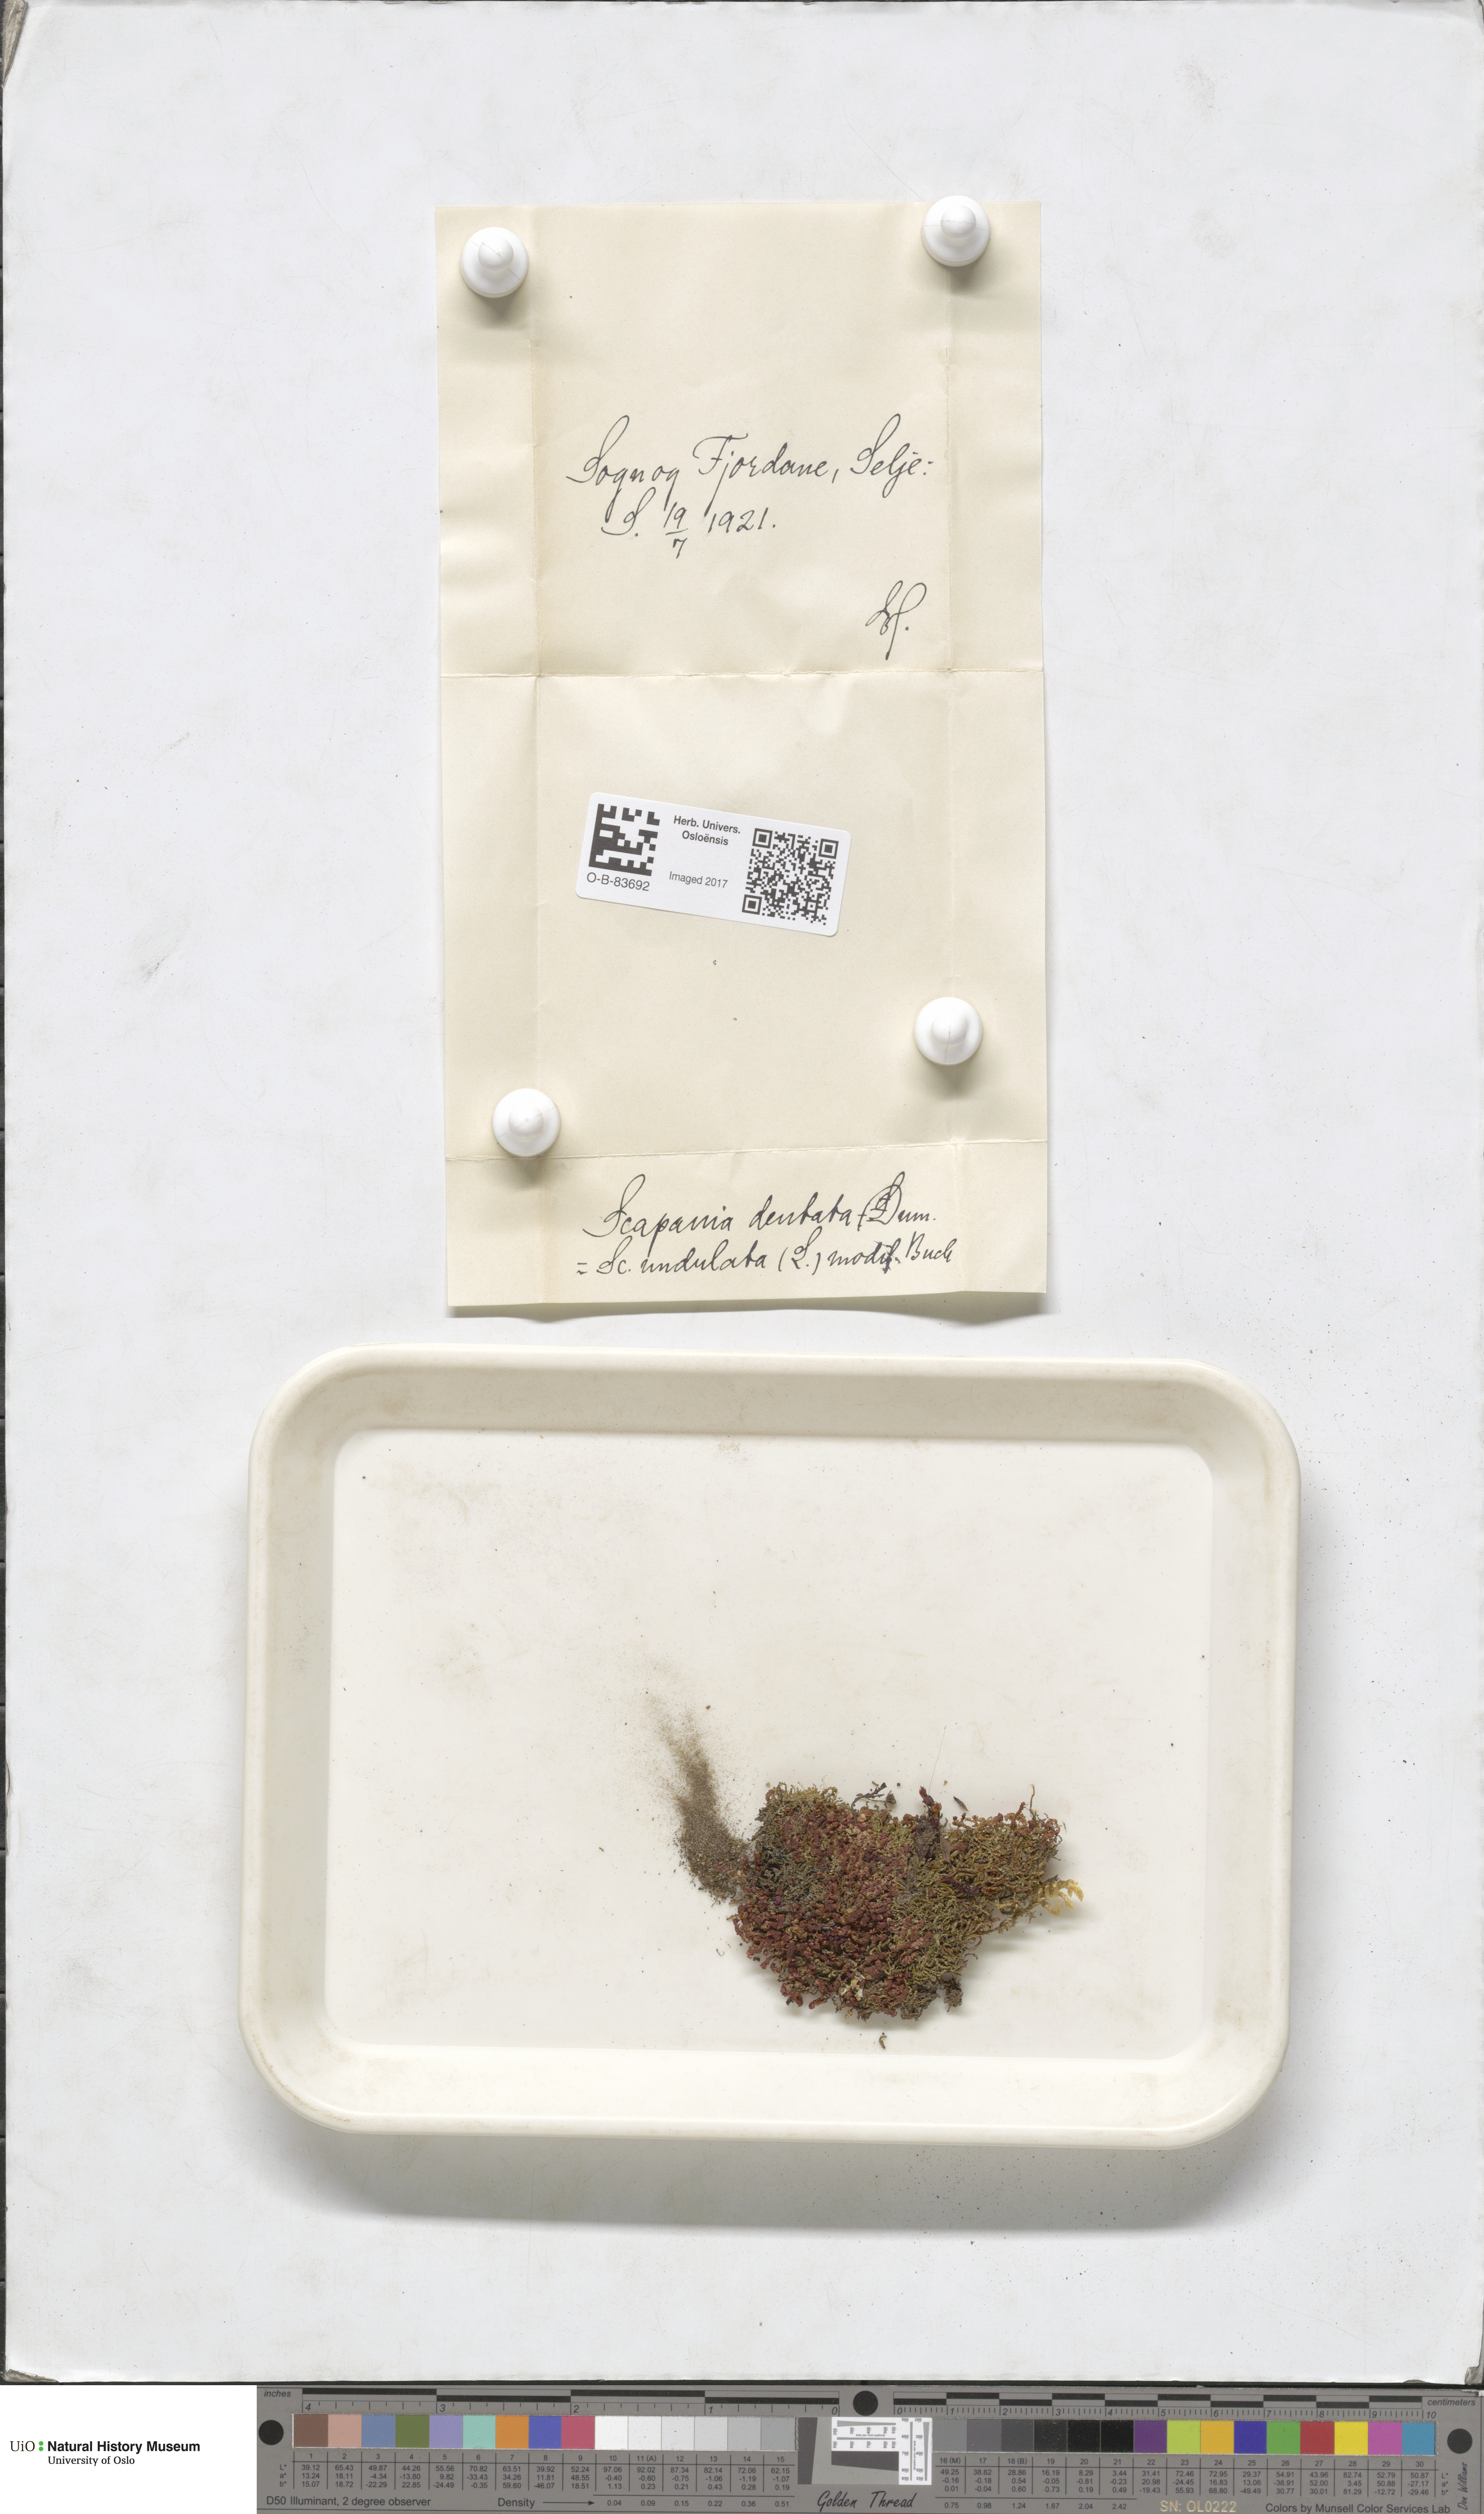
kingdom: Plantae
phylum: Marchantiophyta
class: Jungermanniopsida
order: Jungermanniales
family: Scapaniaceae
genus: Scapania
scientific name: Scapania undulata
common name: Water earwort
